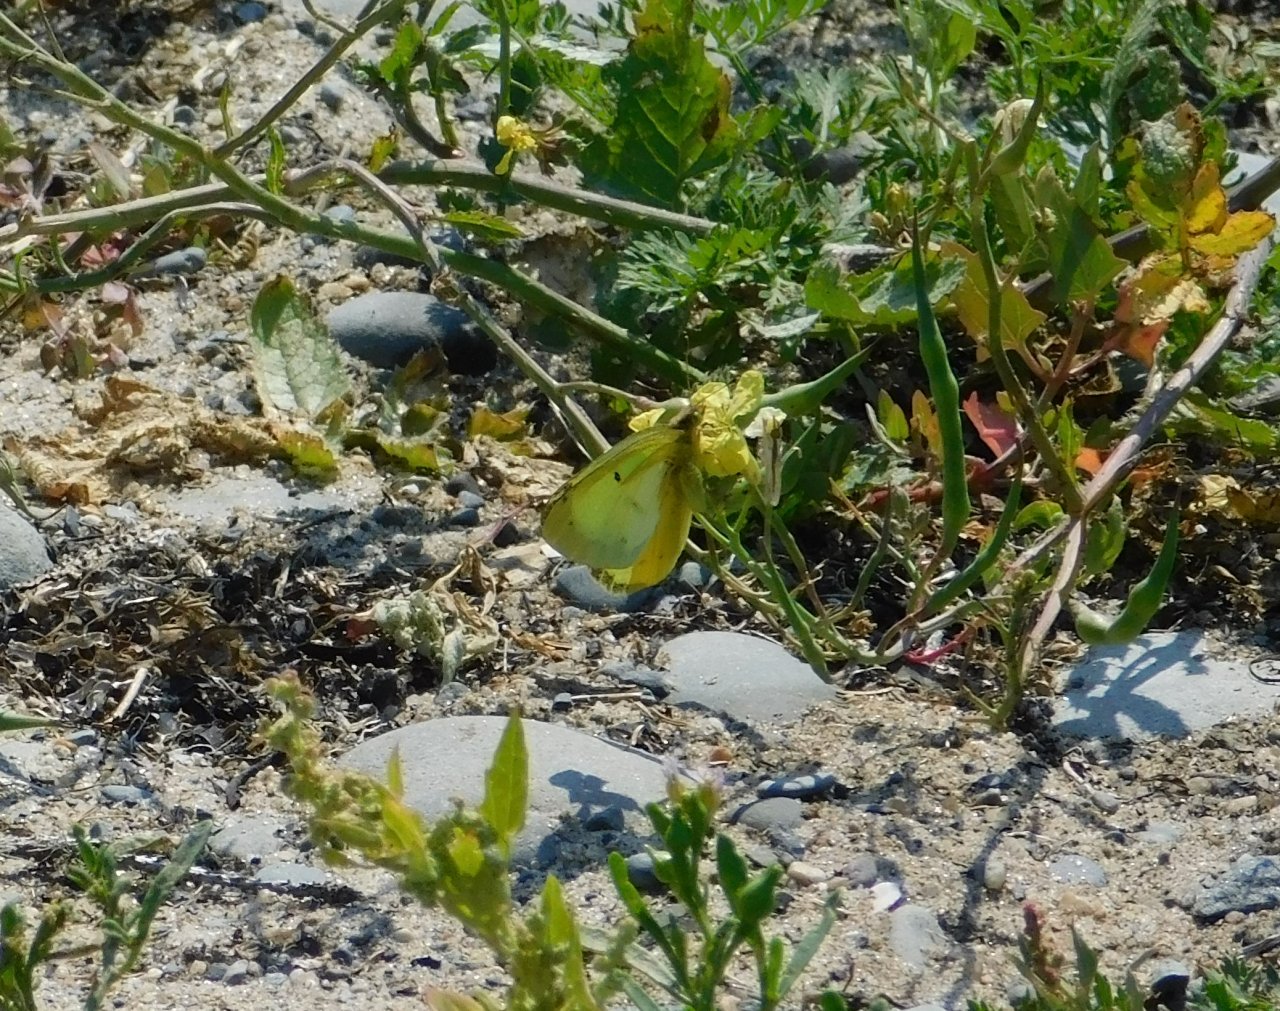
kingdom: Animalia
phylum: Arthropoda
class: Insecta
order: Lepidoptera
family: Pieridae
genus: Colias
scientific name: Colias philodice
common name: Clouded Sulphur
